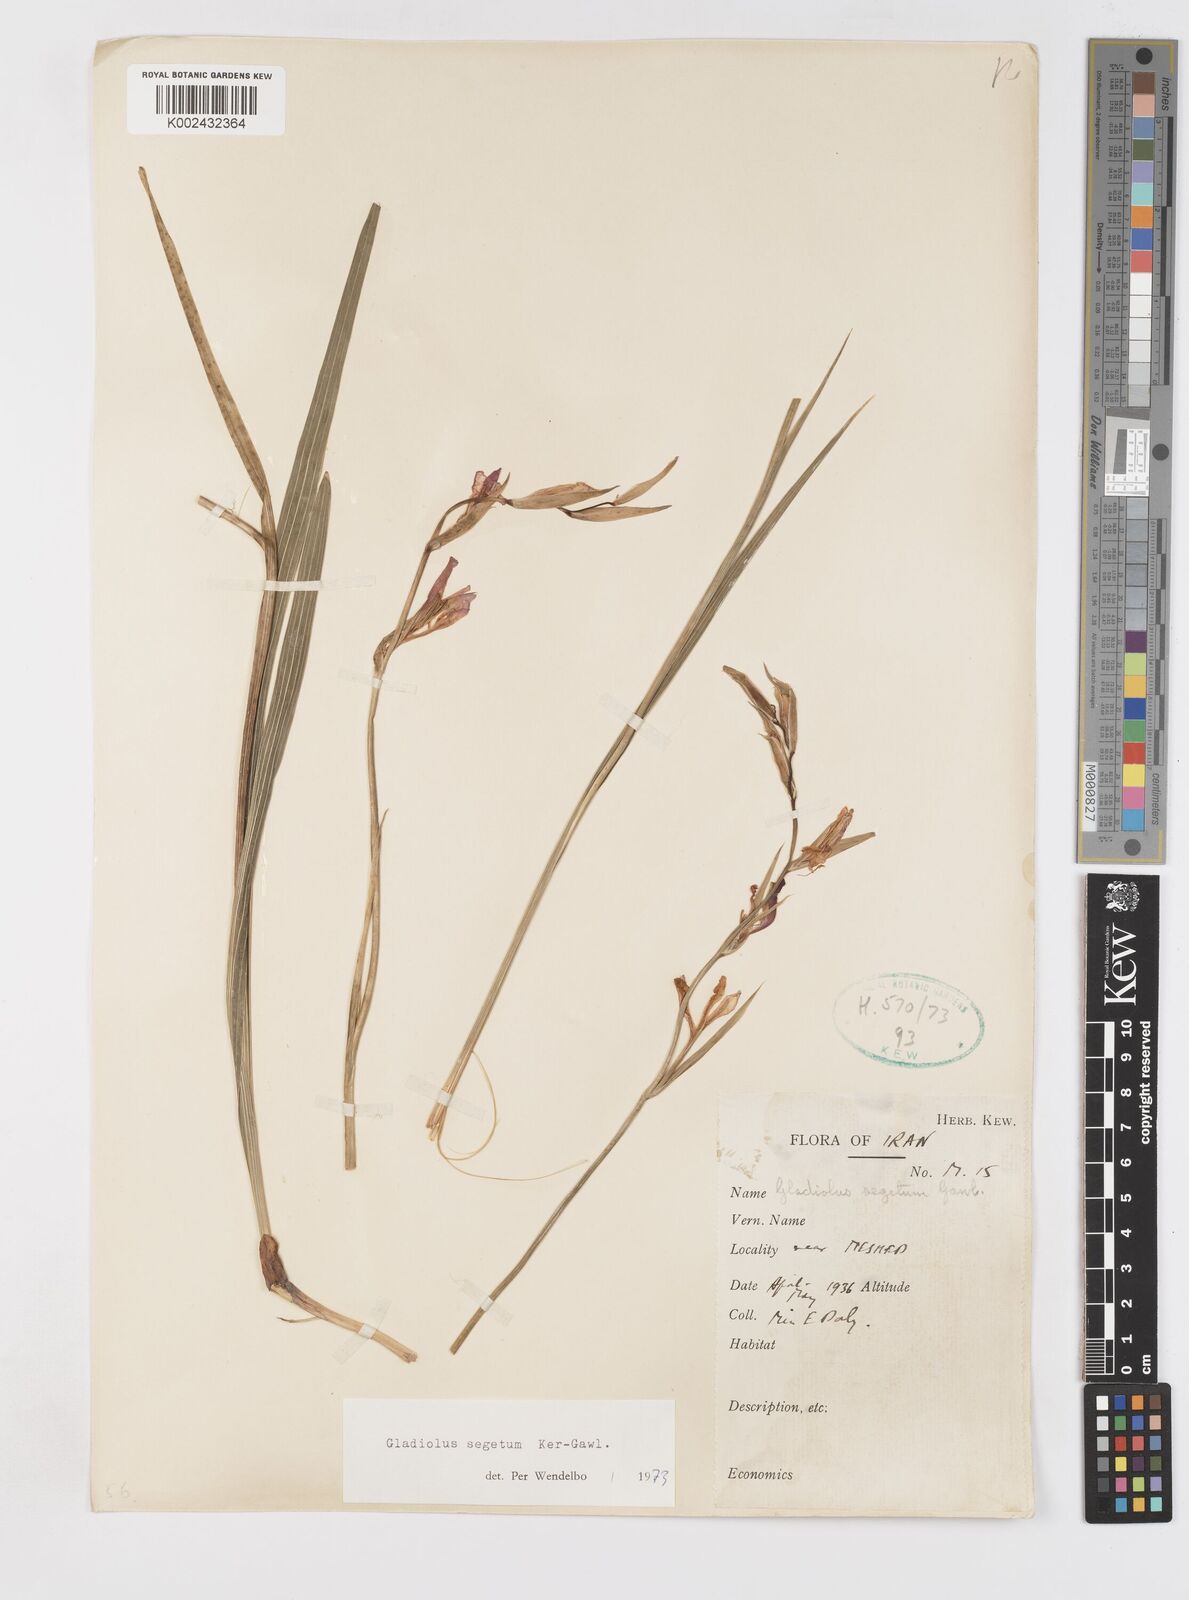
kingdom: Plantae
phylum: Tracheophyta
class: Liliopsida
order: Asparagales
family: Iridaceae
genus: Gladiolus
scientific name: Gladiolus italicus
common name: Field gladiolus
